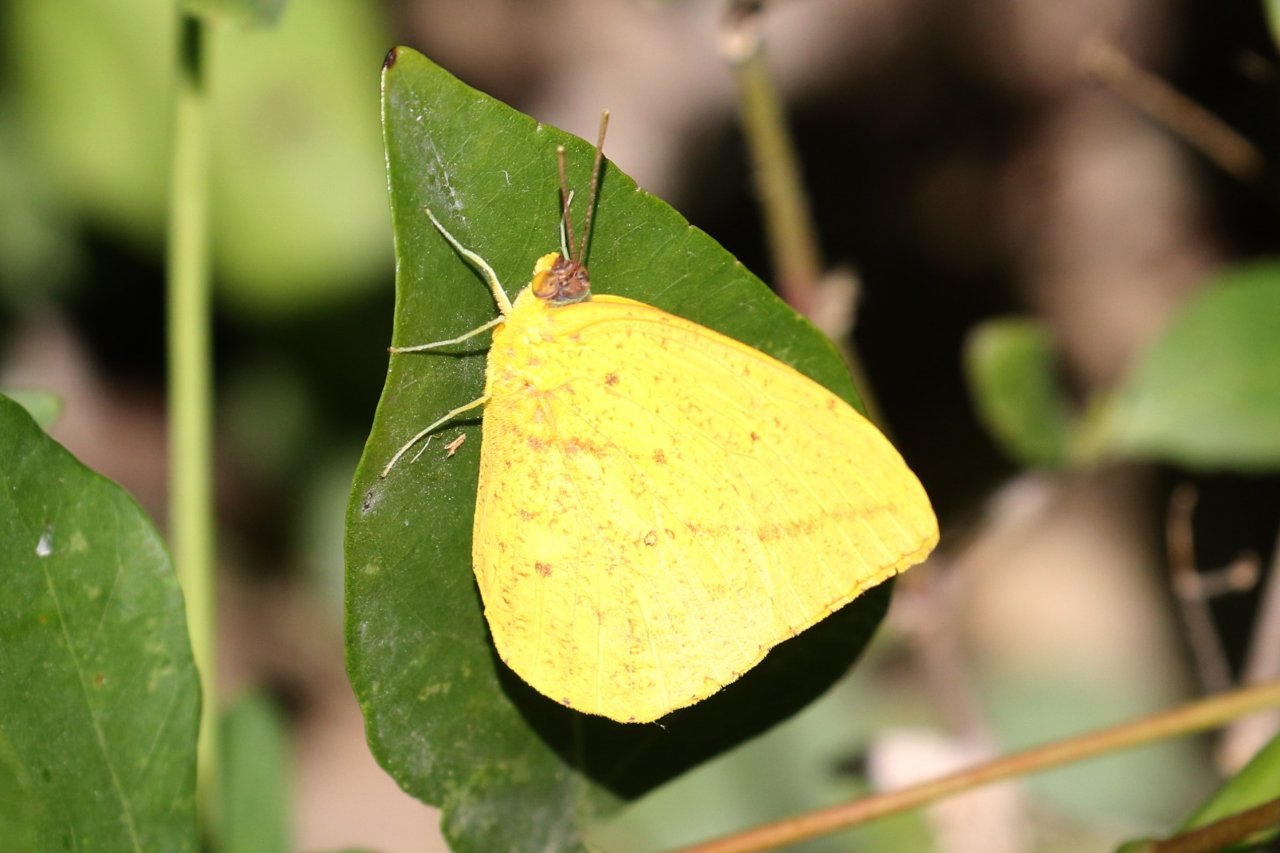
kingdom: Animalia
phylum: Arthropoda
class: Insecta
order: Lepidoptera
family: Pieridae
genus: Phoebis
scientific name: Phoebis agarithe
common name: Large Orange Sulphur
